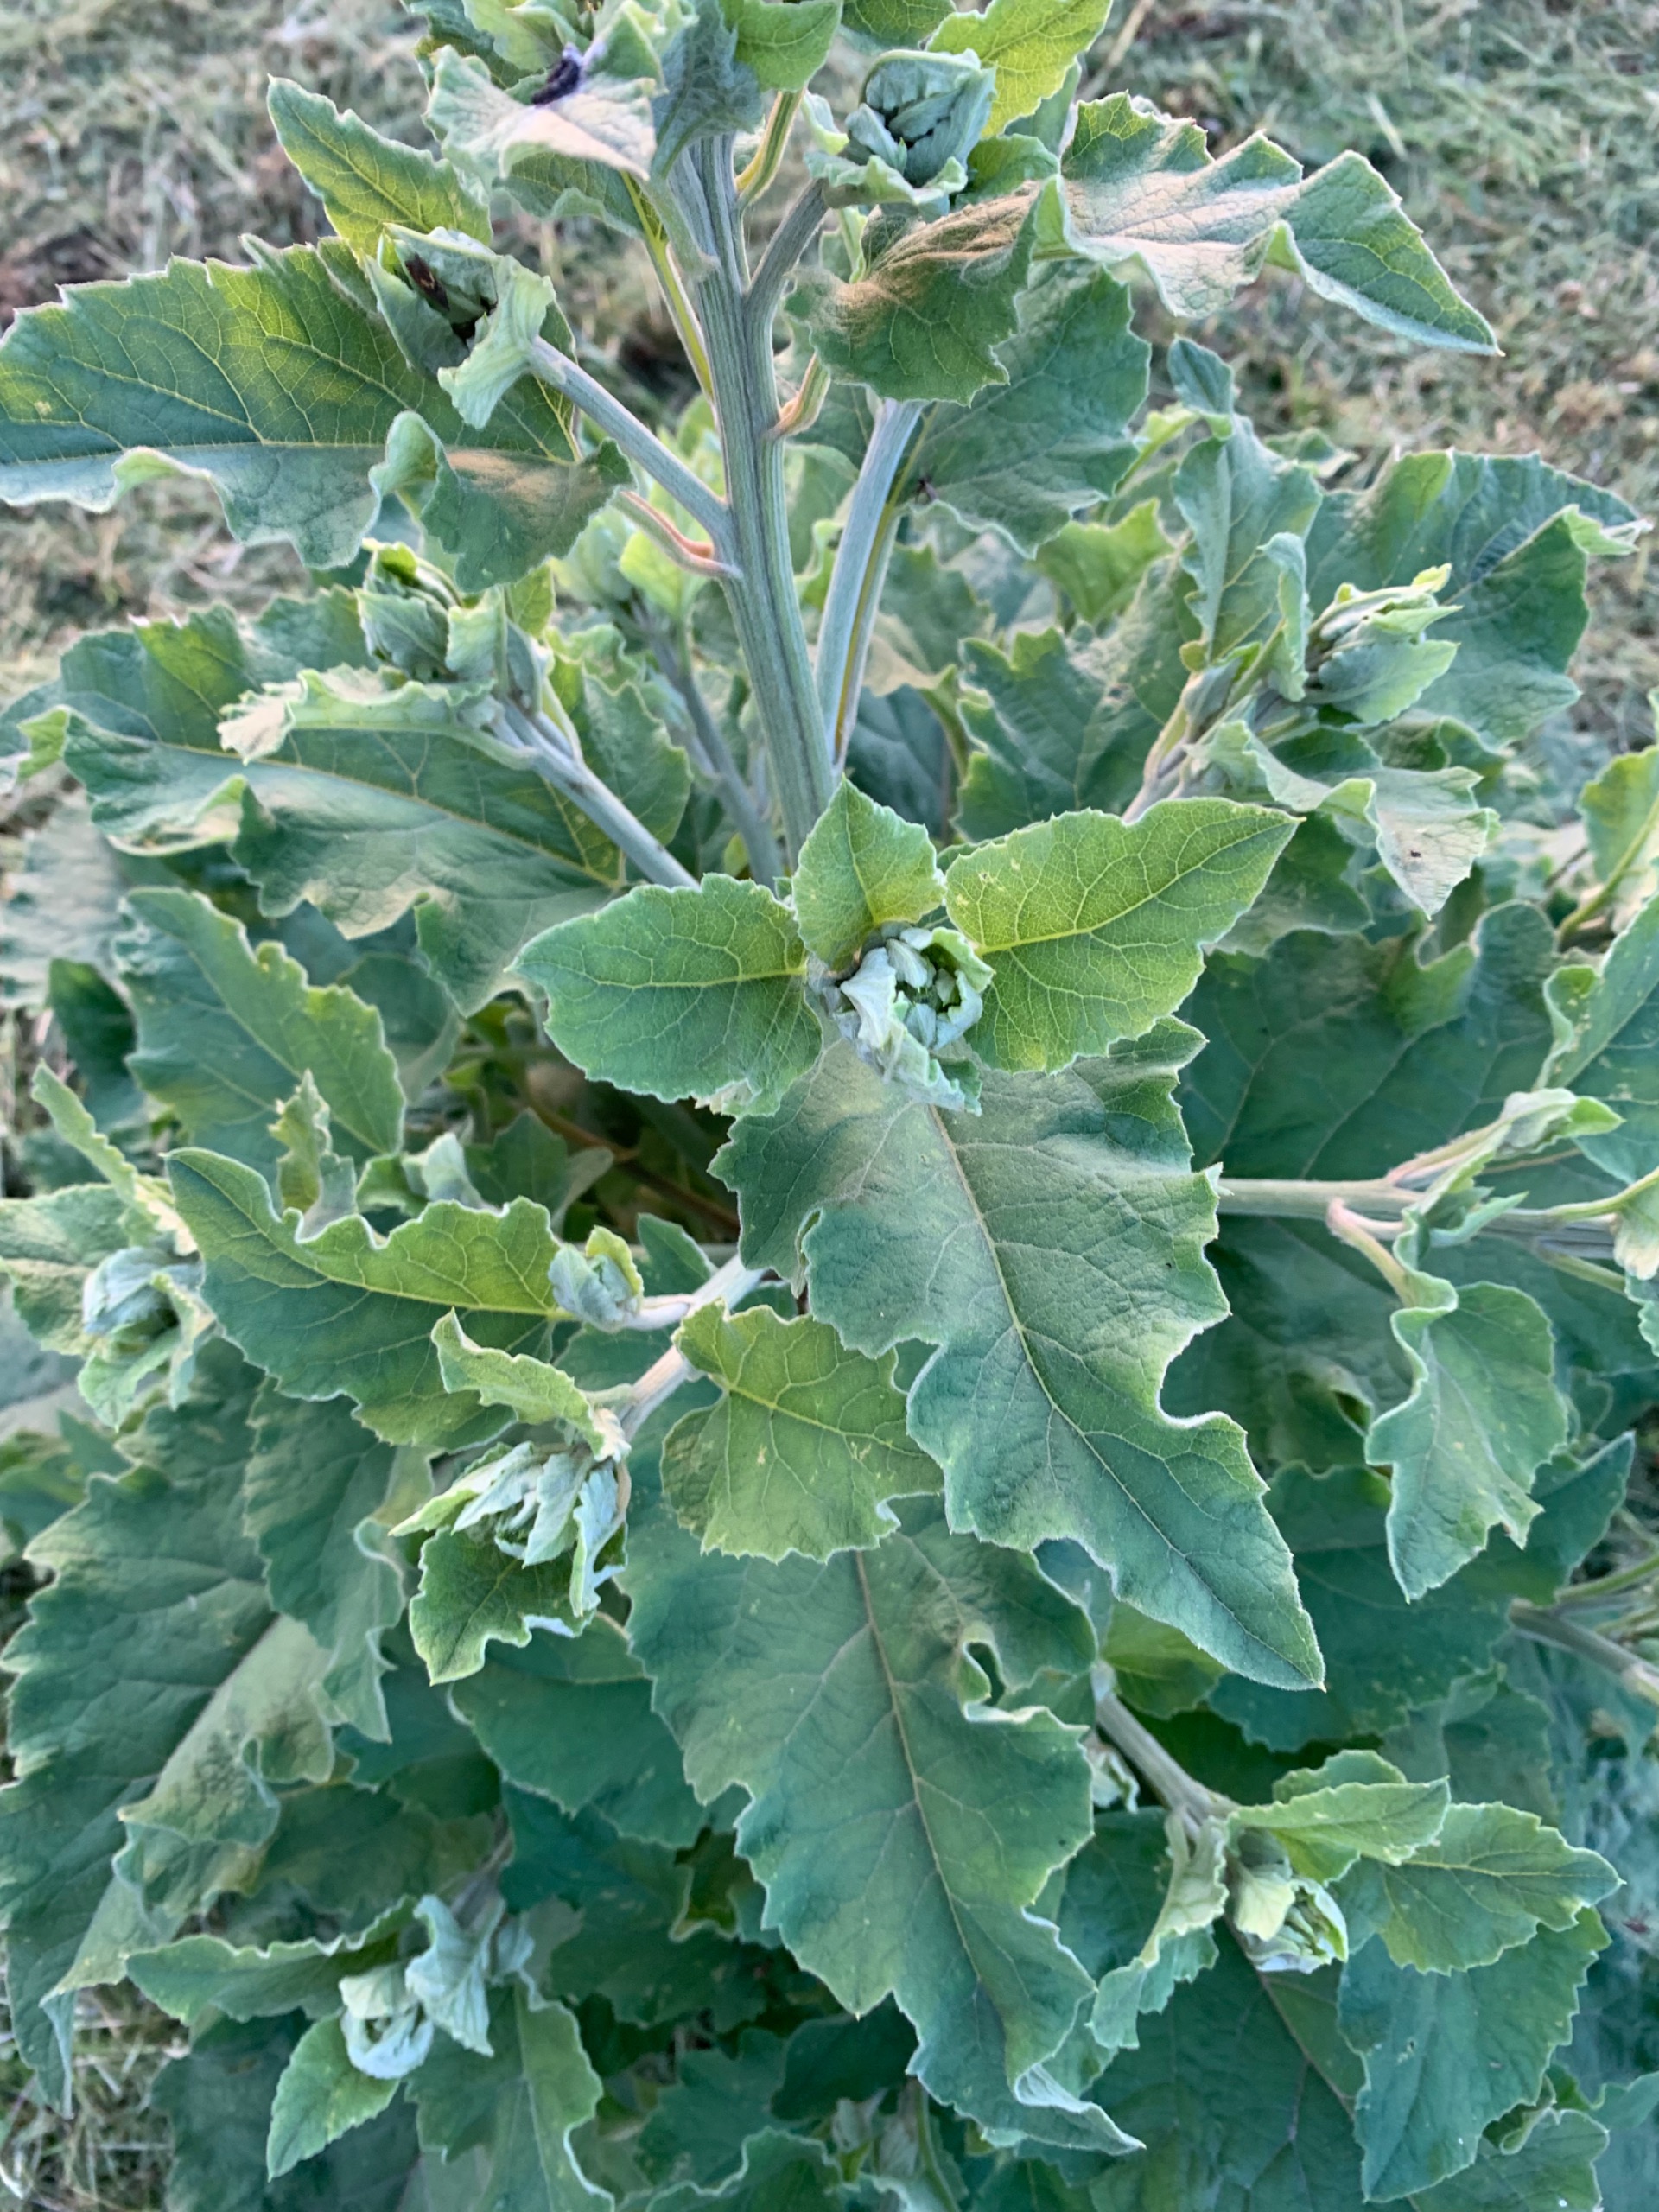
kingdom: Plantae
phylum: Tracheophyta
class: Magnoliopsida
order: Asterales
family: Asteraceae
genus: Arctium
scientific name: Arctium
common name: Burreslægten
